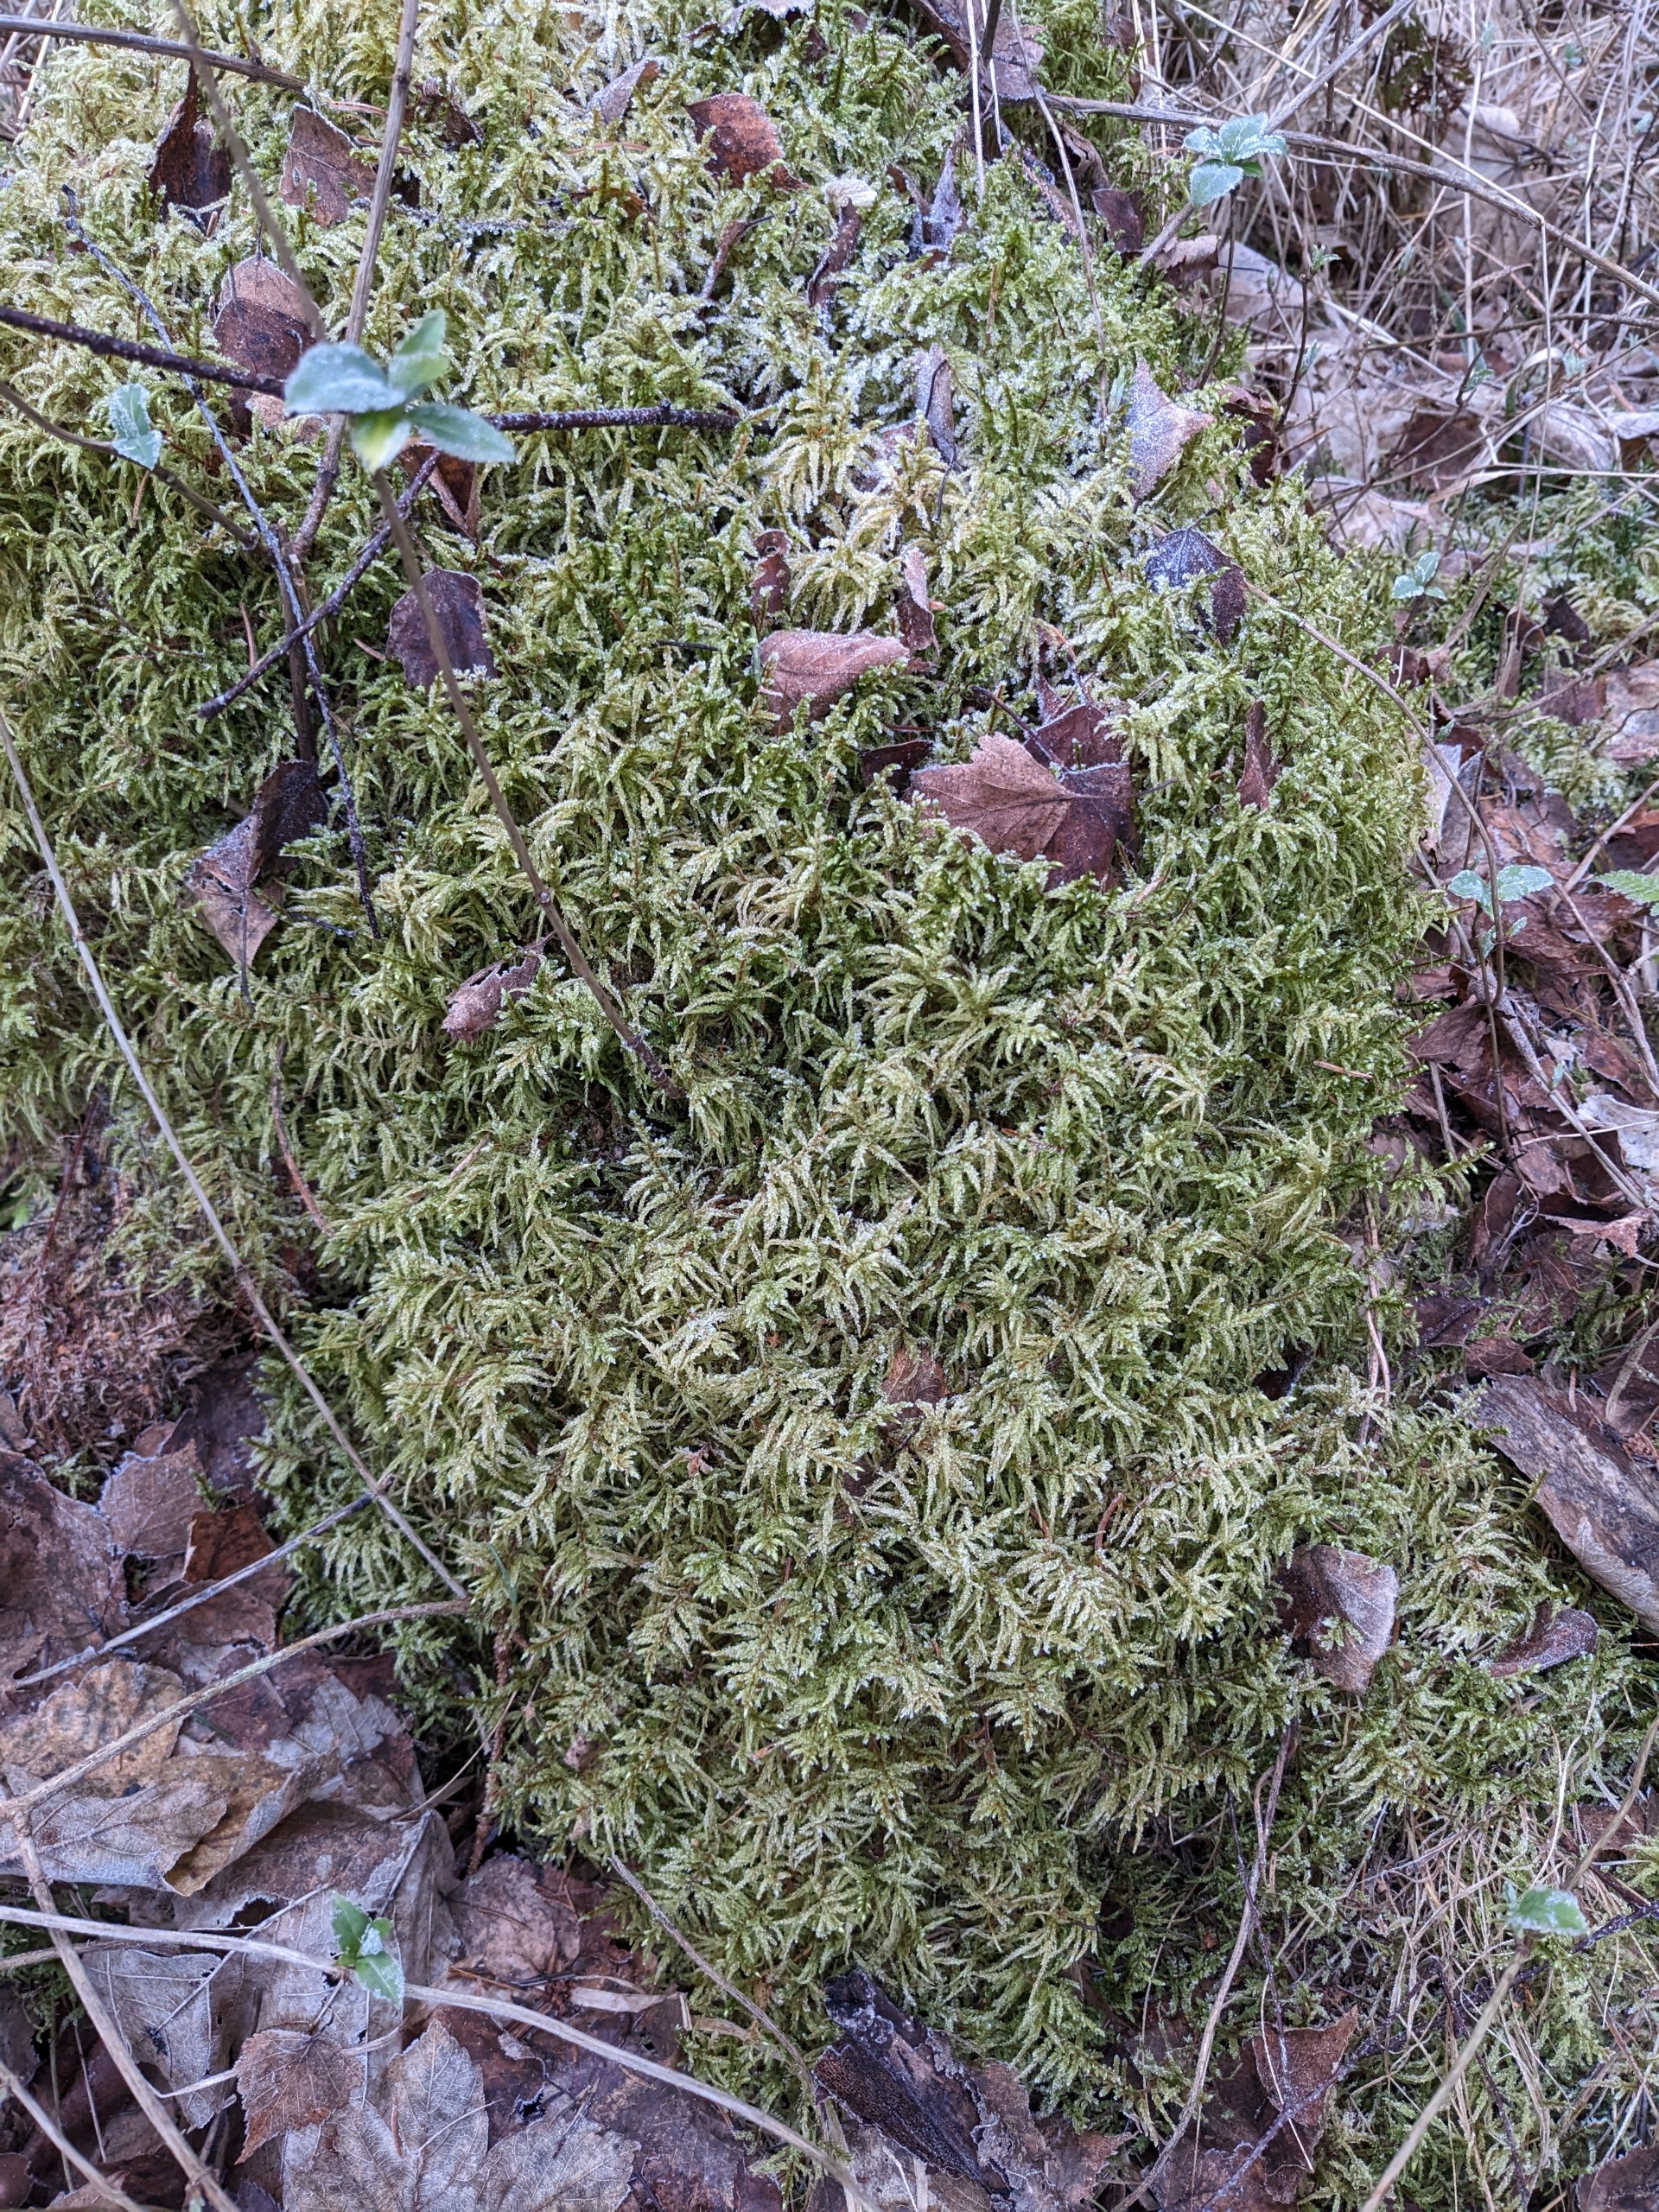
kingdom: Plantae
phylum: Bryophyta
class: Bryopsida
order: Hypnales
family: Hylocomiaceae
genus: Pleurozium
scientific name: Pleurozium schreberi
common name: Trind fyrremos
